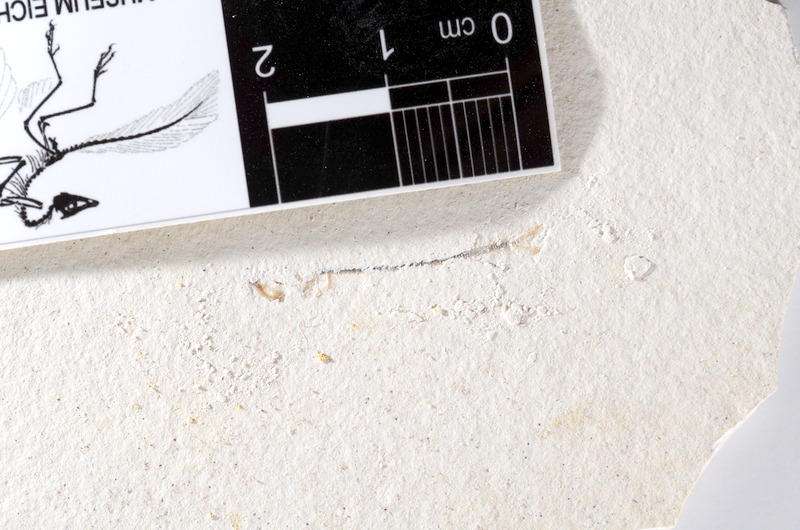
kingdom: Animalia
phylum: Chordata
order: Salmoniformes
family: Orthogonikleithridae
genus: Orthogonikleithrus
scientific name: Orthogonikleithrus hoelli
